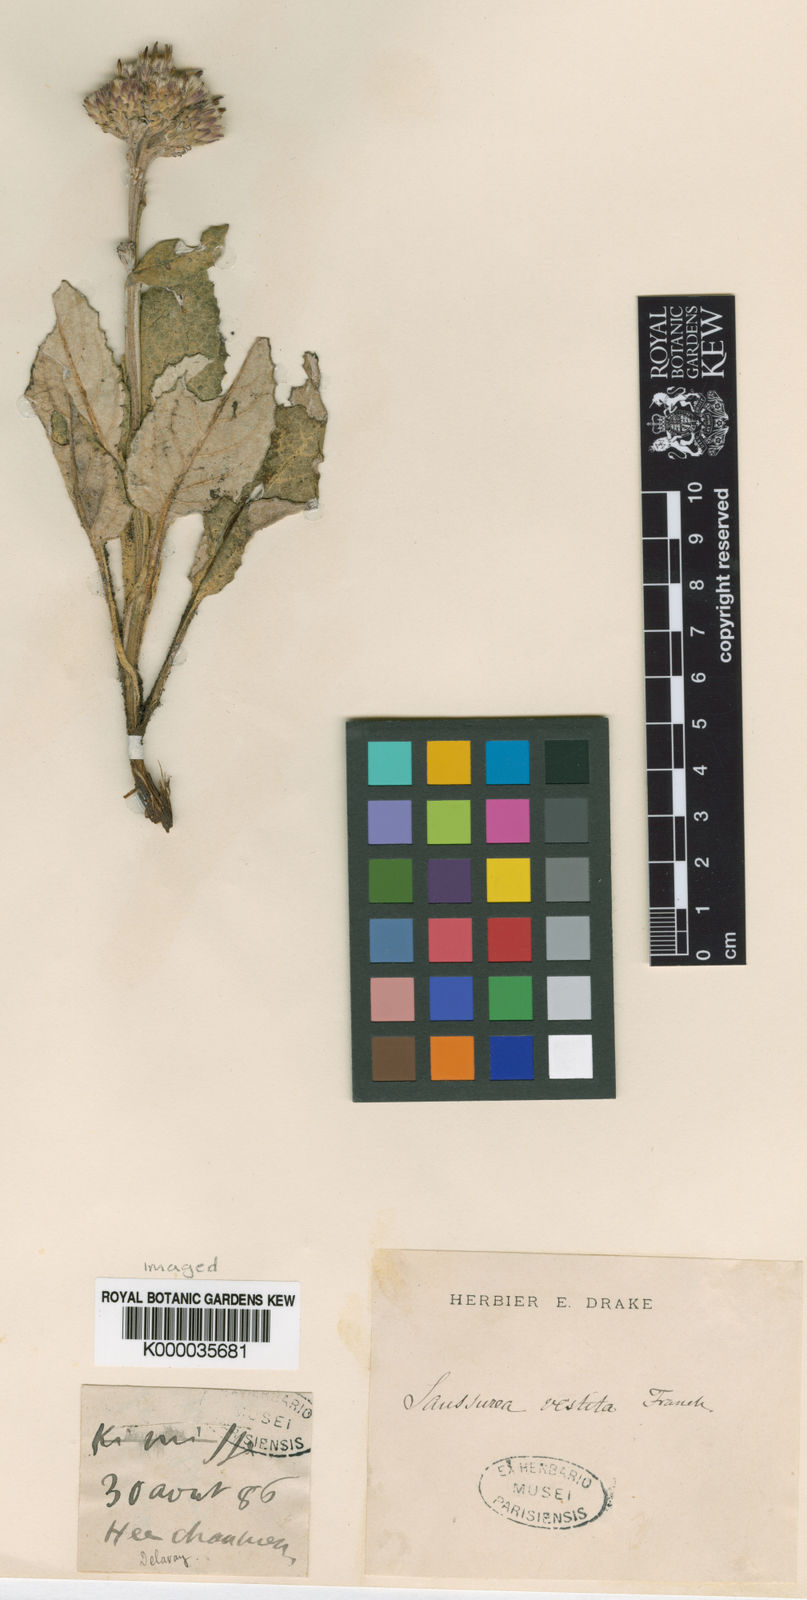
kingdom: Plantae
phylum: Tracheophyta
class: Magnoliopsida
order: Asterales
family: Asteraceae
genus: Saussurea
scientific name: Saussurea vestita
